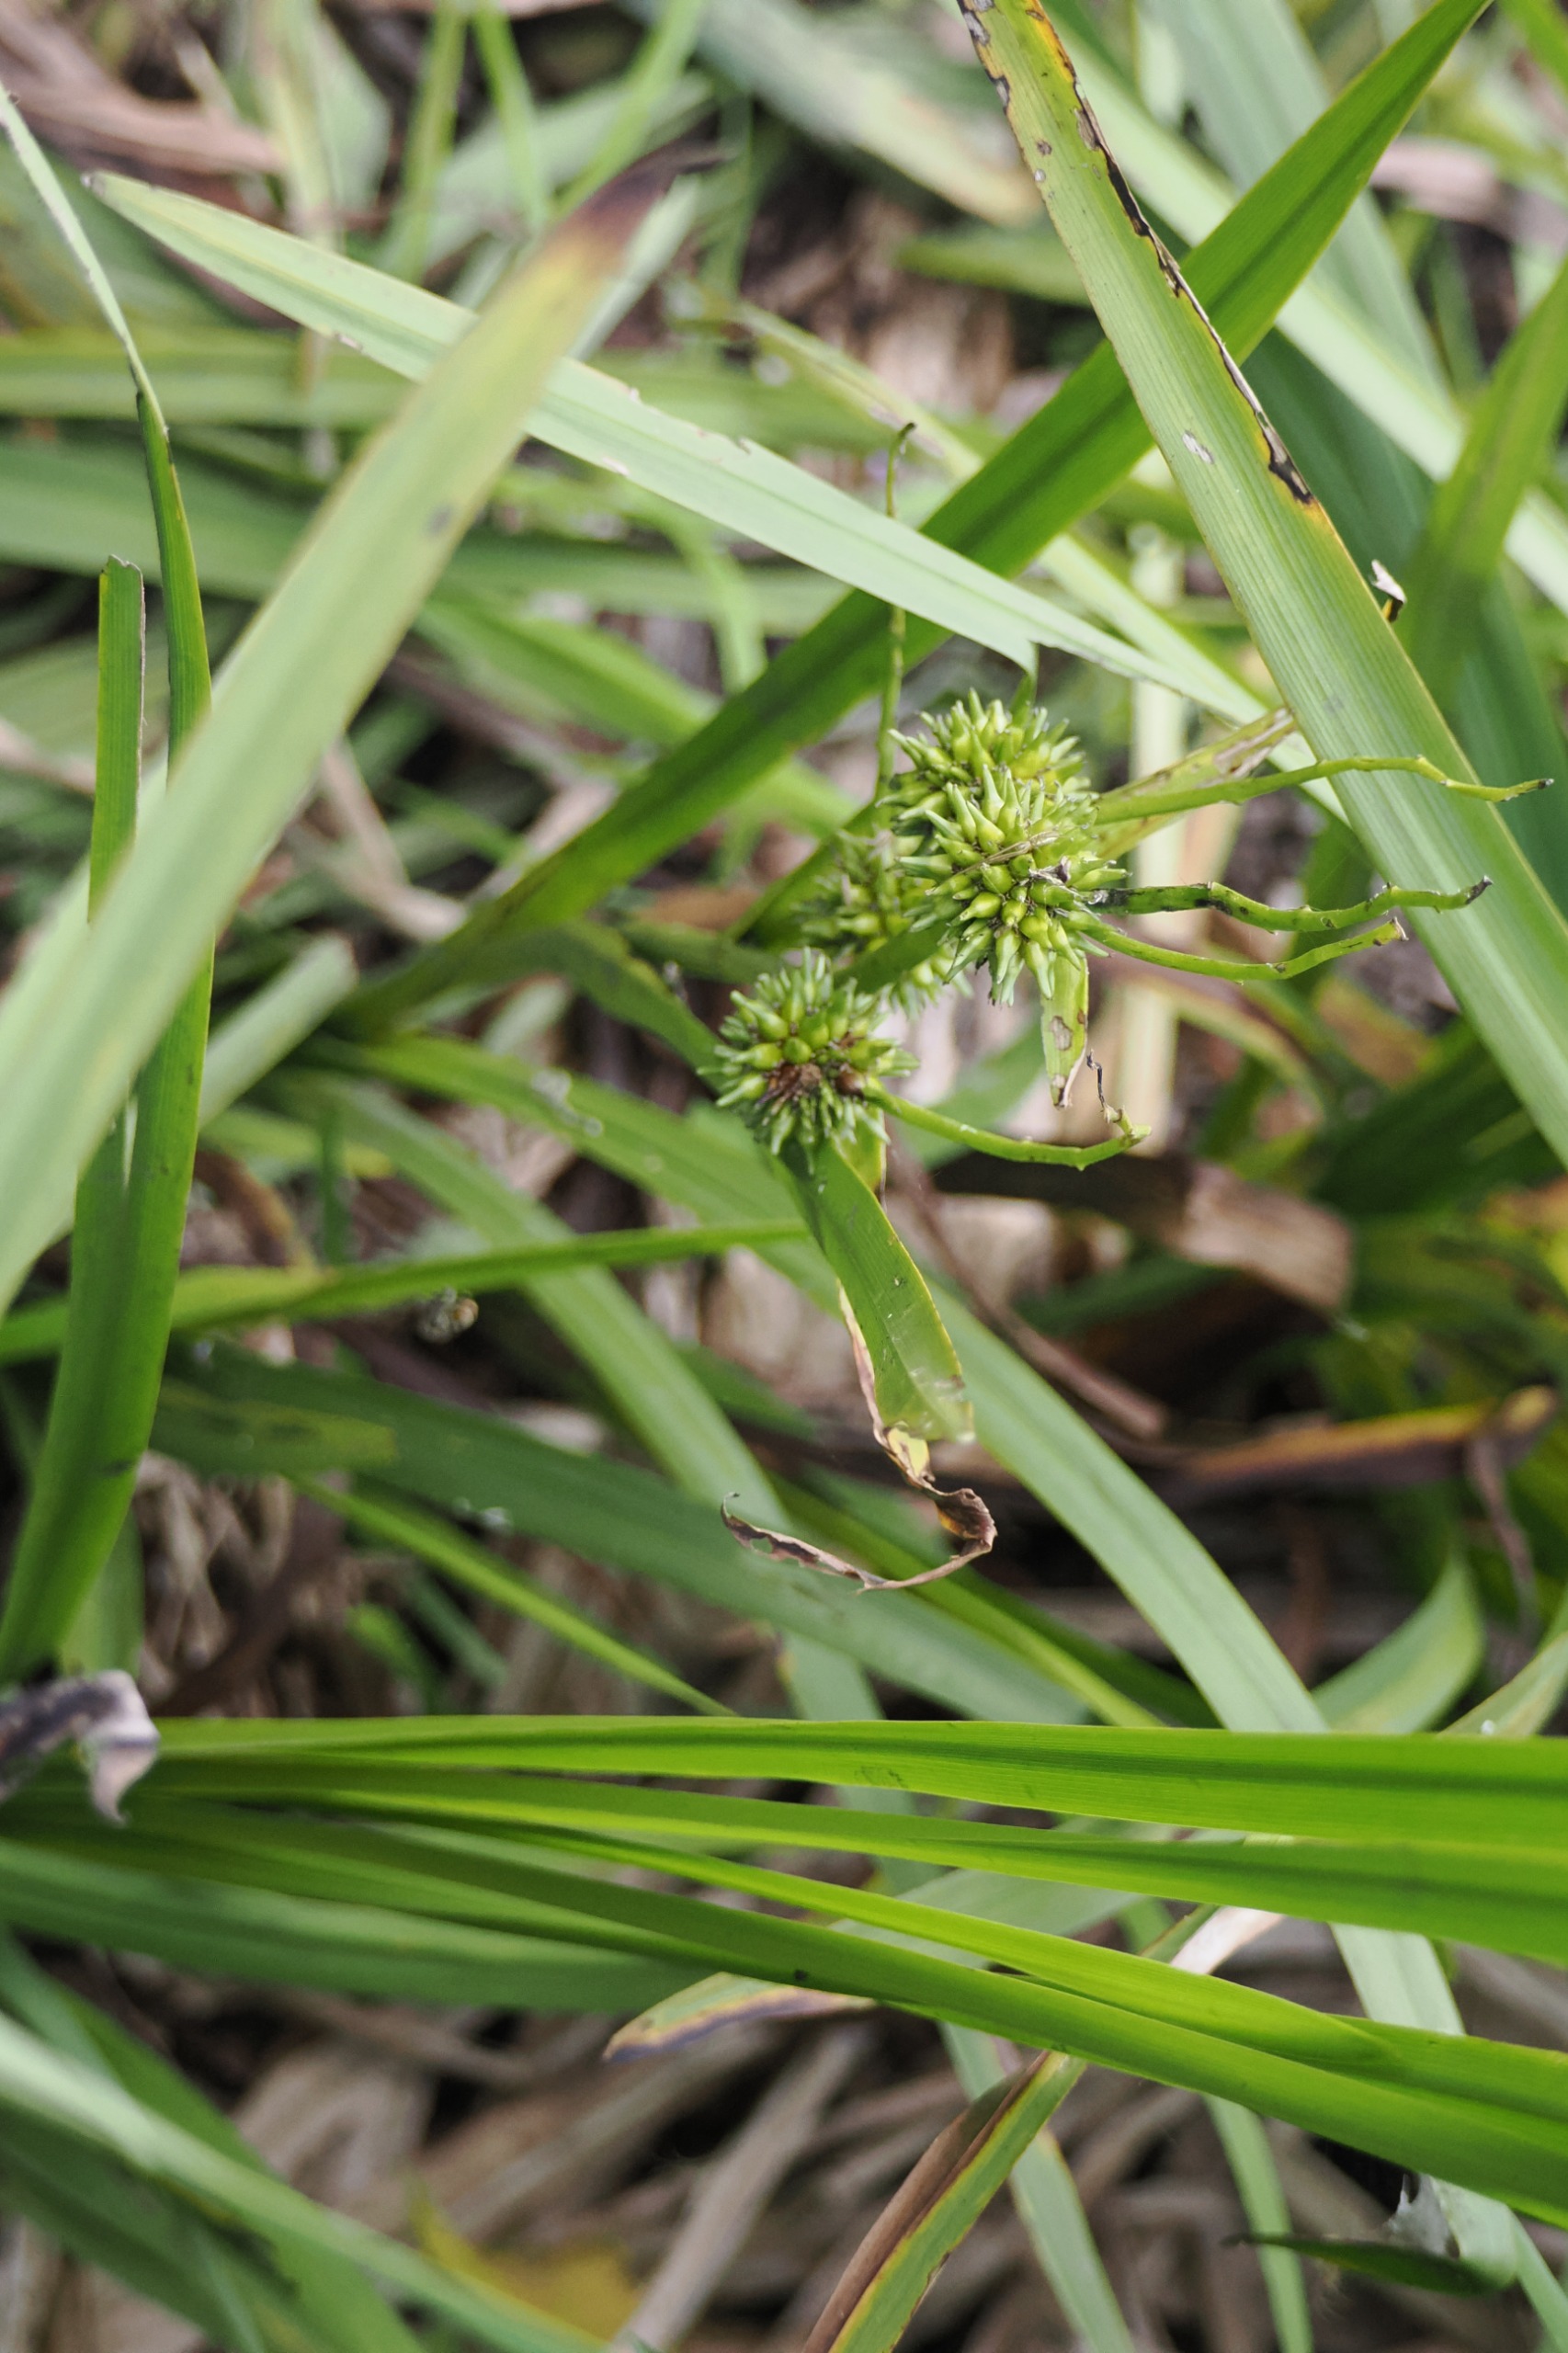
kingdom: Plantae
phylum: Tracheophyta
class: Liliopsida
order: Poales
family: Typhaceae
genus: Sparganium
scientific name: Sparganium erectum
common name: Grenet pindsvineknop
